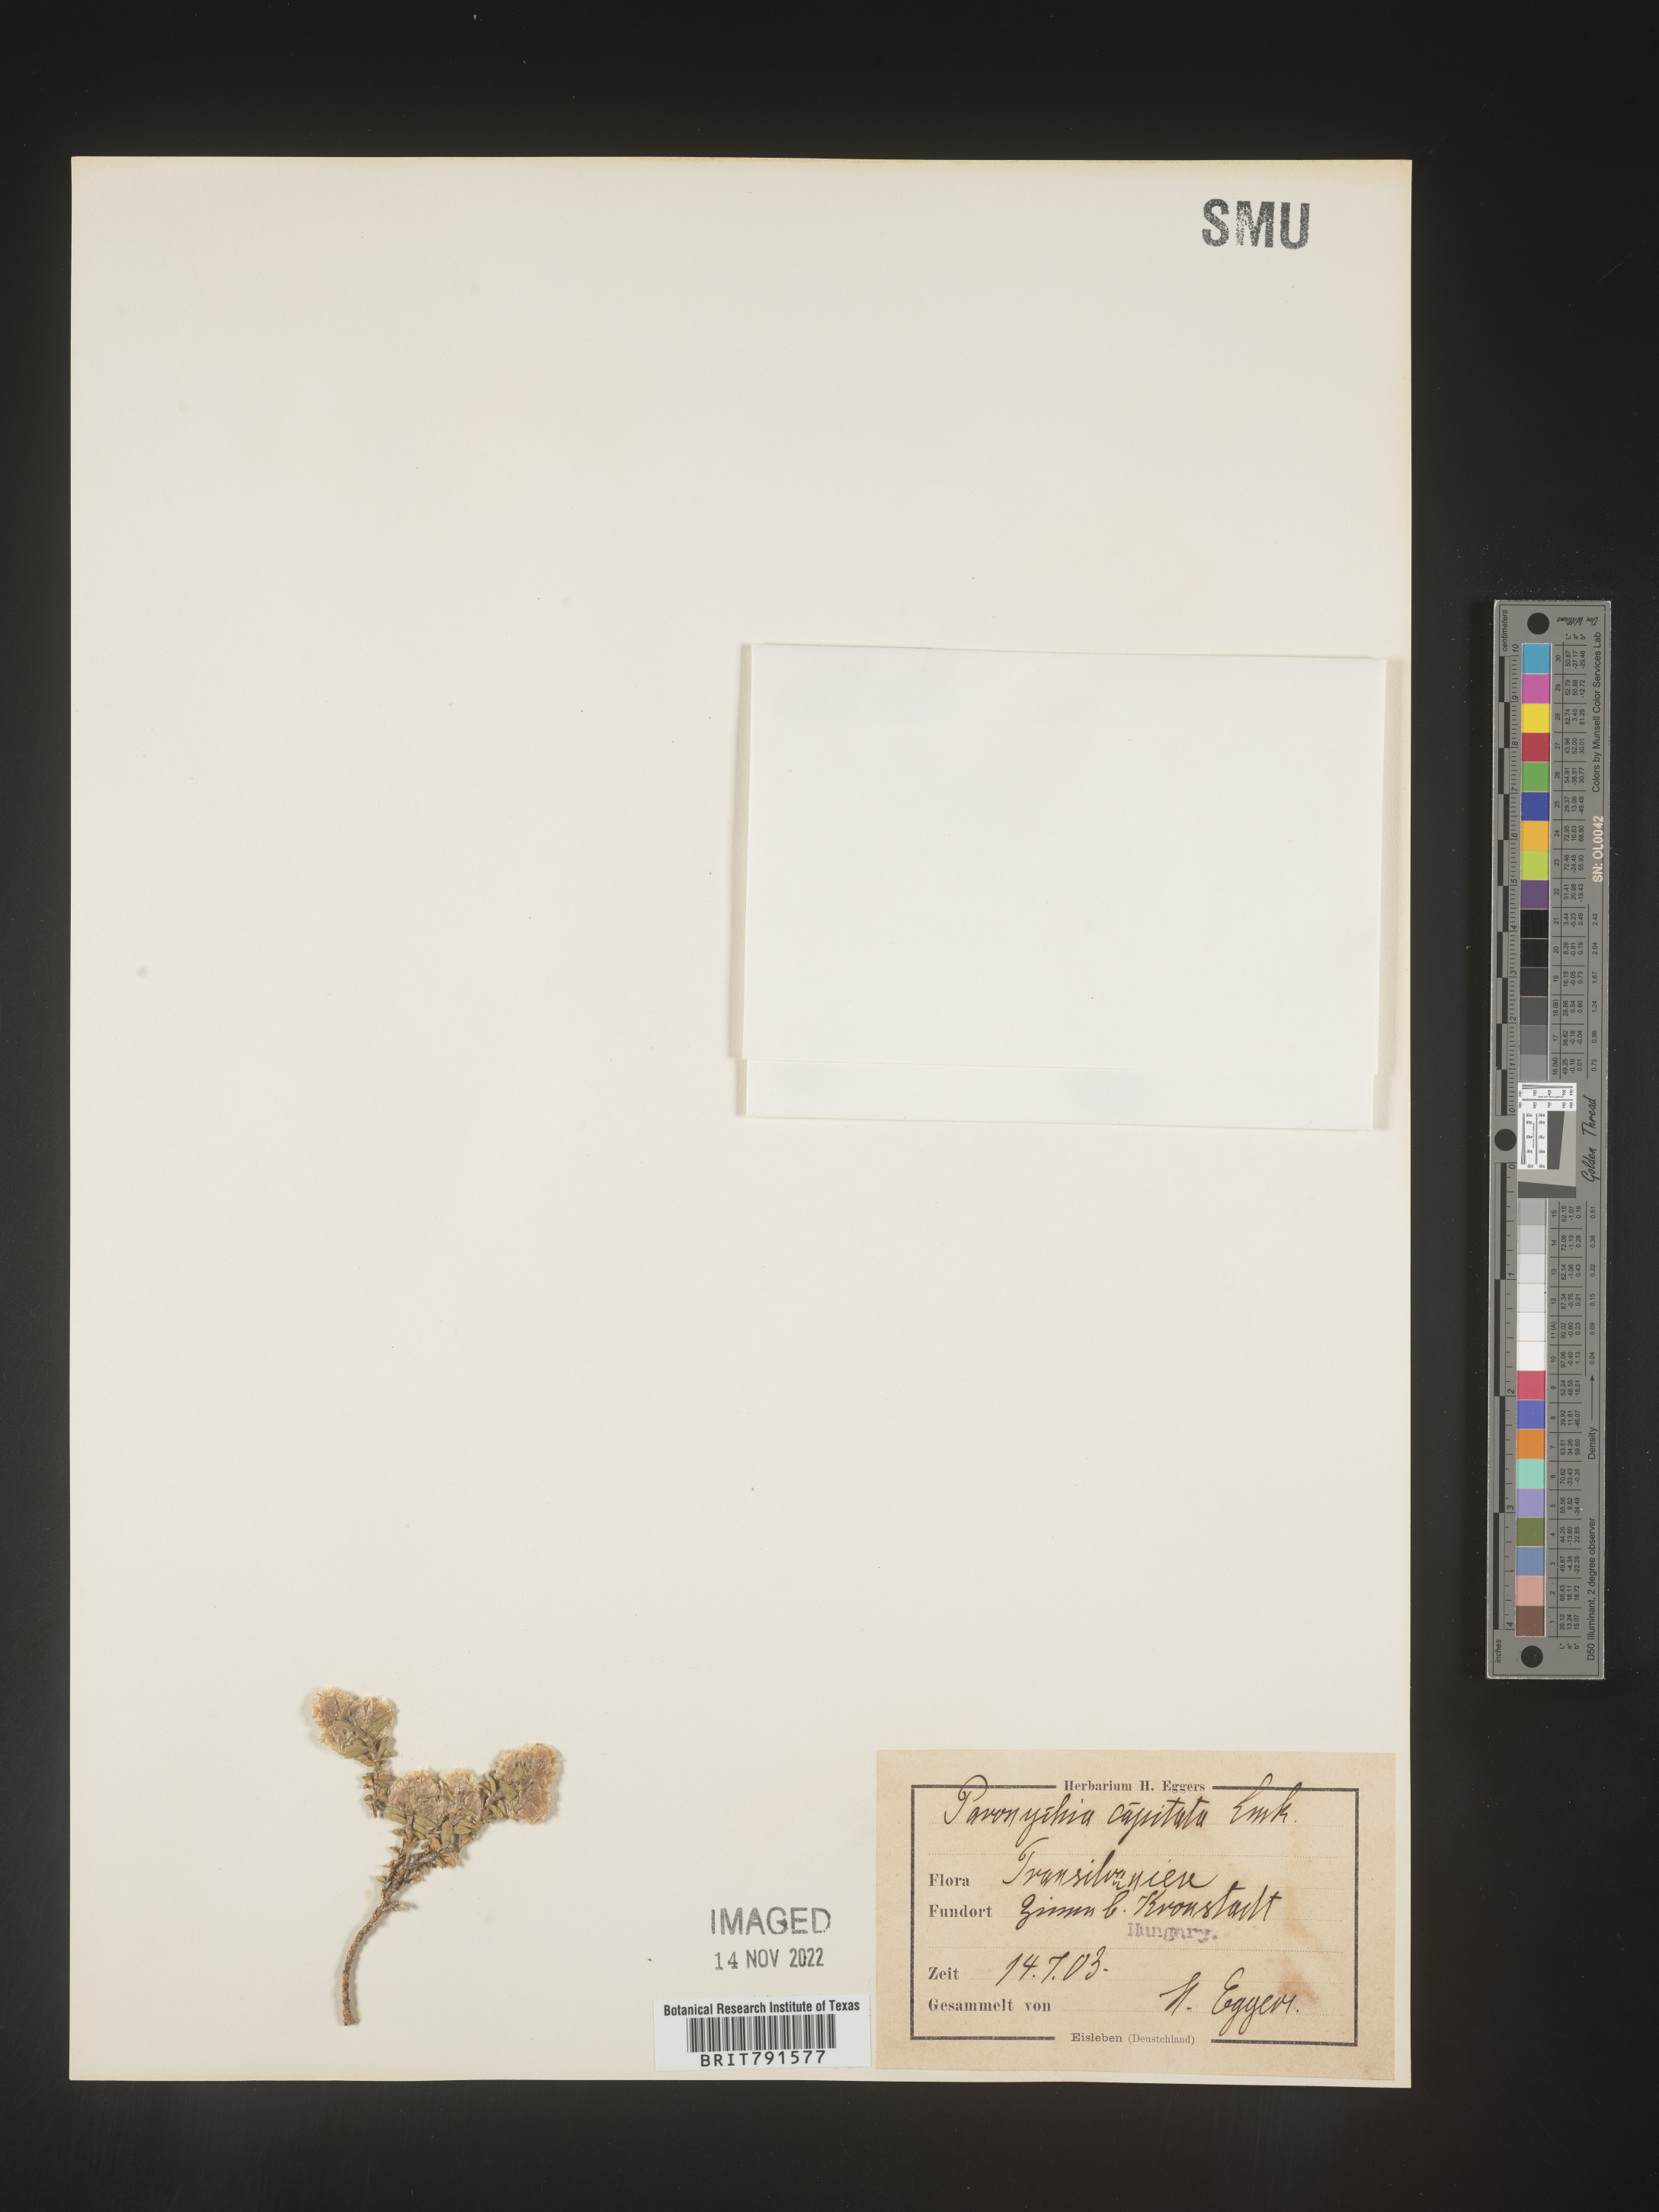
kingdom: Plantae
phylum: Tracheophyta
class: Magnoliopsida
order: Caryophyllales
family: Caryophyllaceae
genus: Paronychia
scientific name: Paronychia
